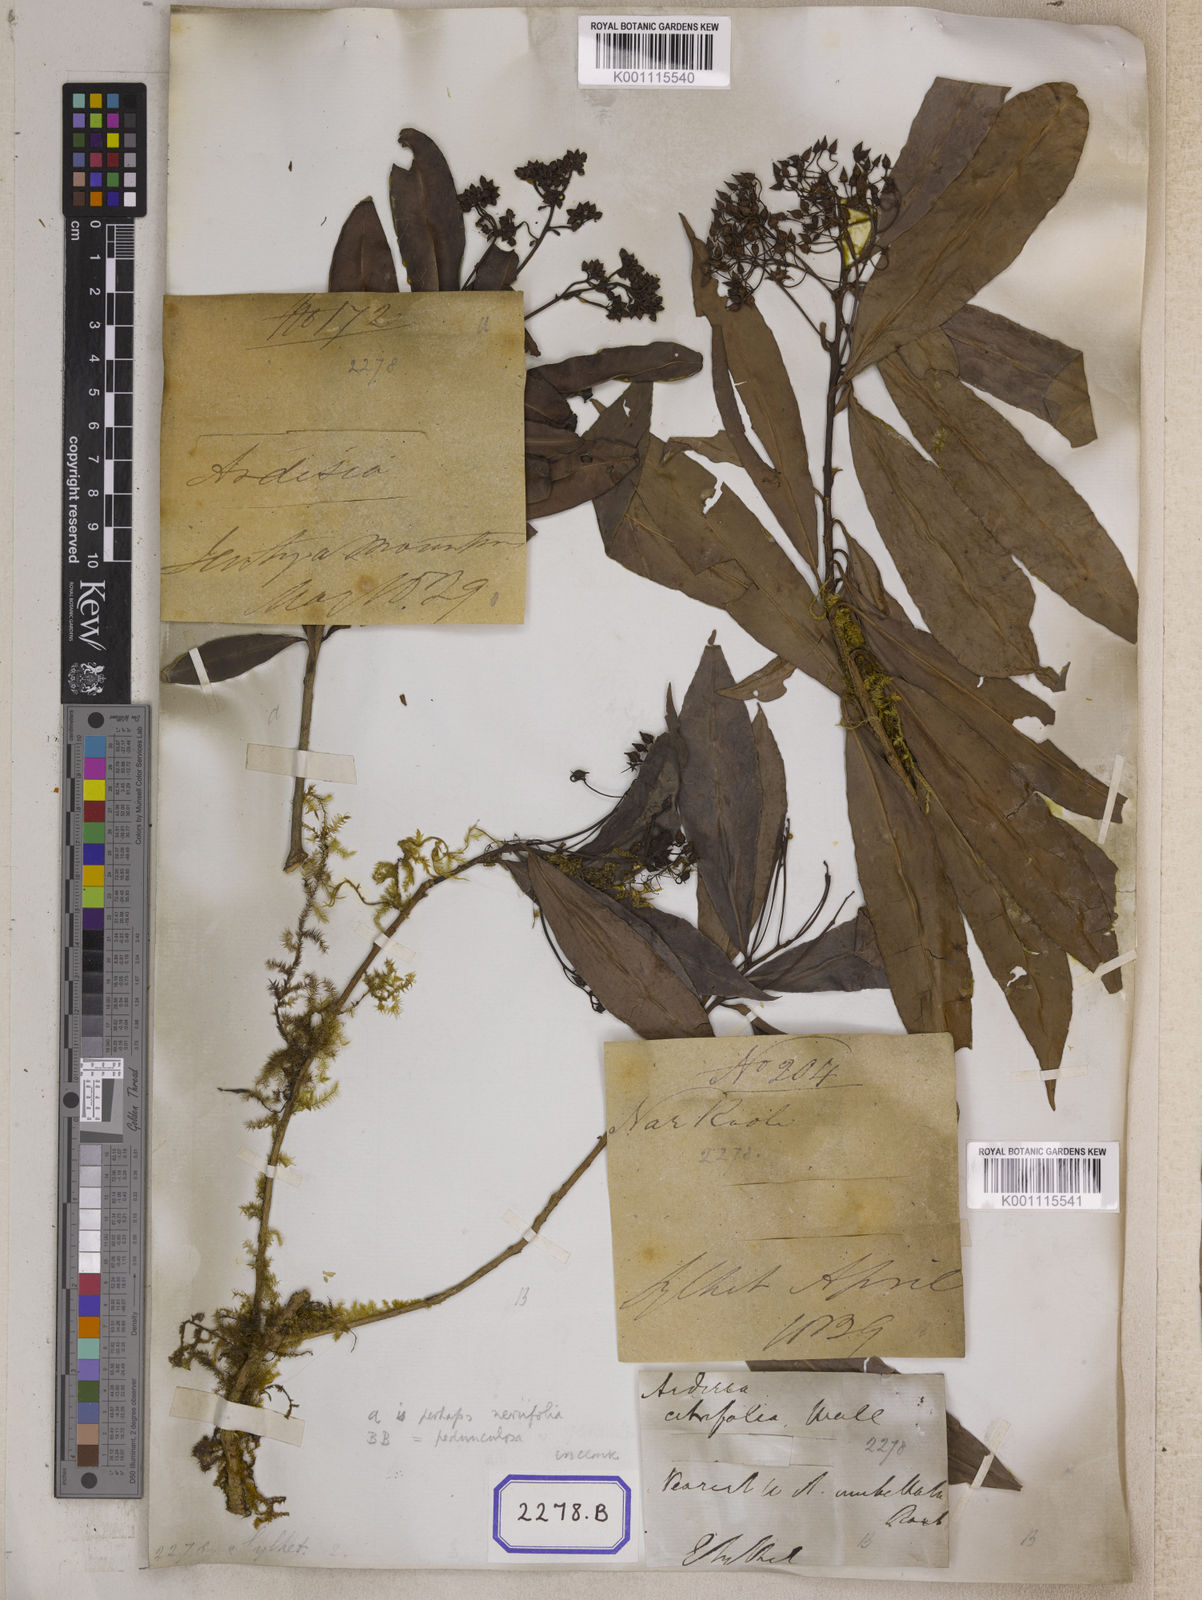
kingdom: Plantae
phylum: Tracheophyta
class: Magnoliopsida
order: Ericales
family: Primulaceae
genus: Ardisia
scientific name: Ardisia
